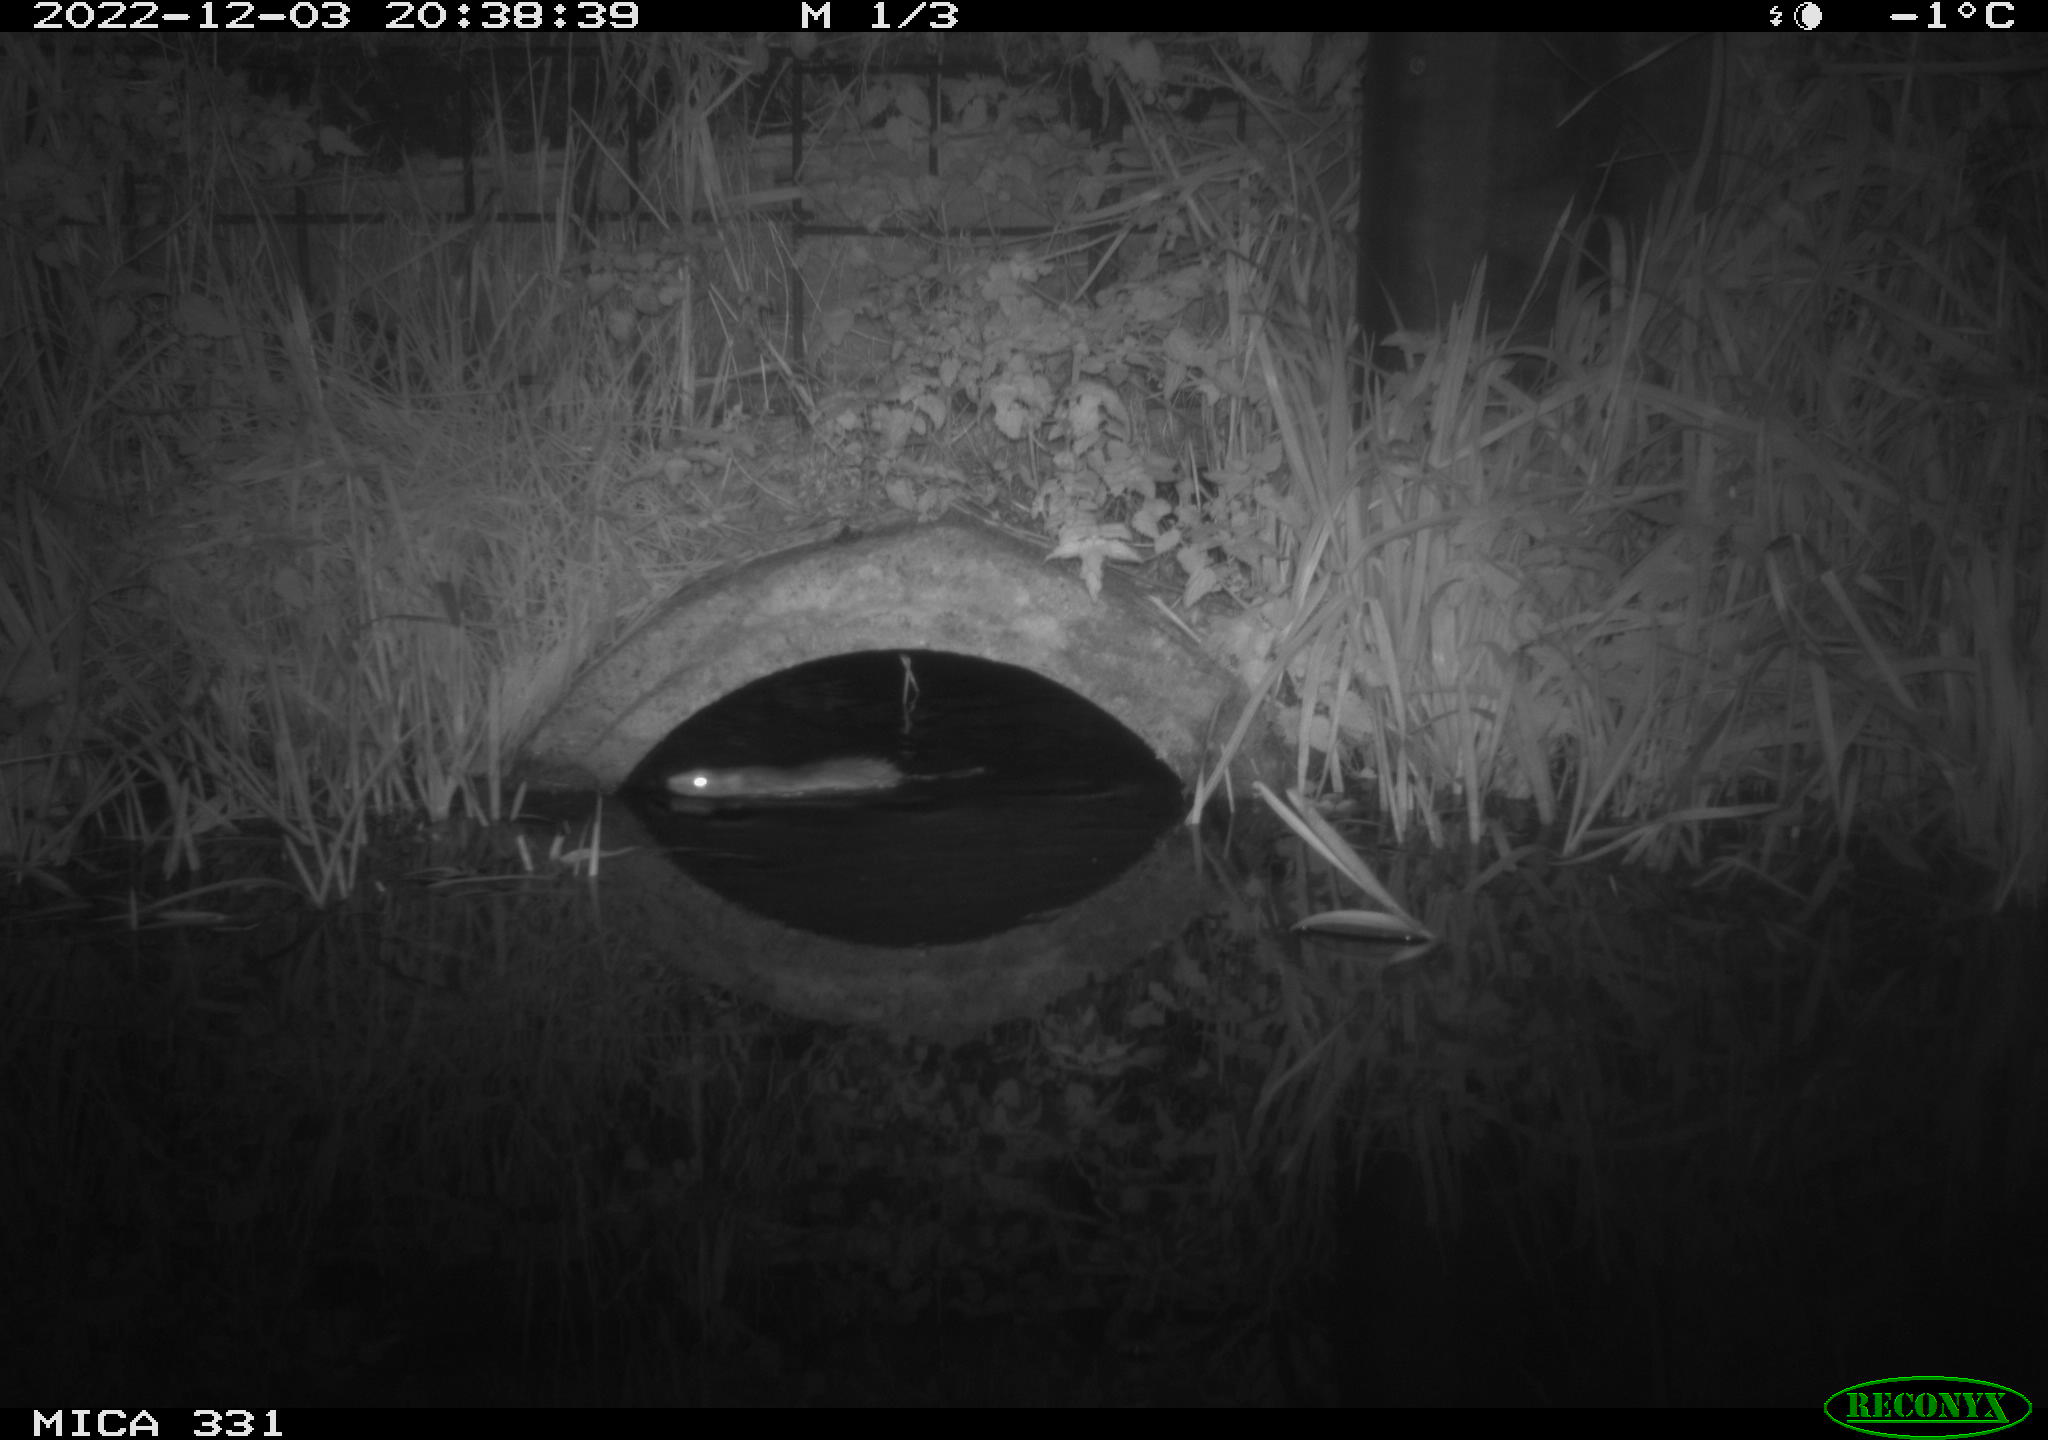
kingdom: Animalia
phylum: Chordata
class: Mammalia
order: Rodentia
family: Muridae
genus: Rattus
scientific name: Rattus norvegicus
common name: Brown rat
